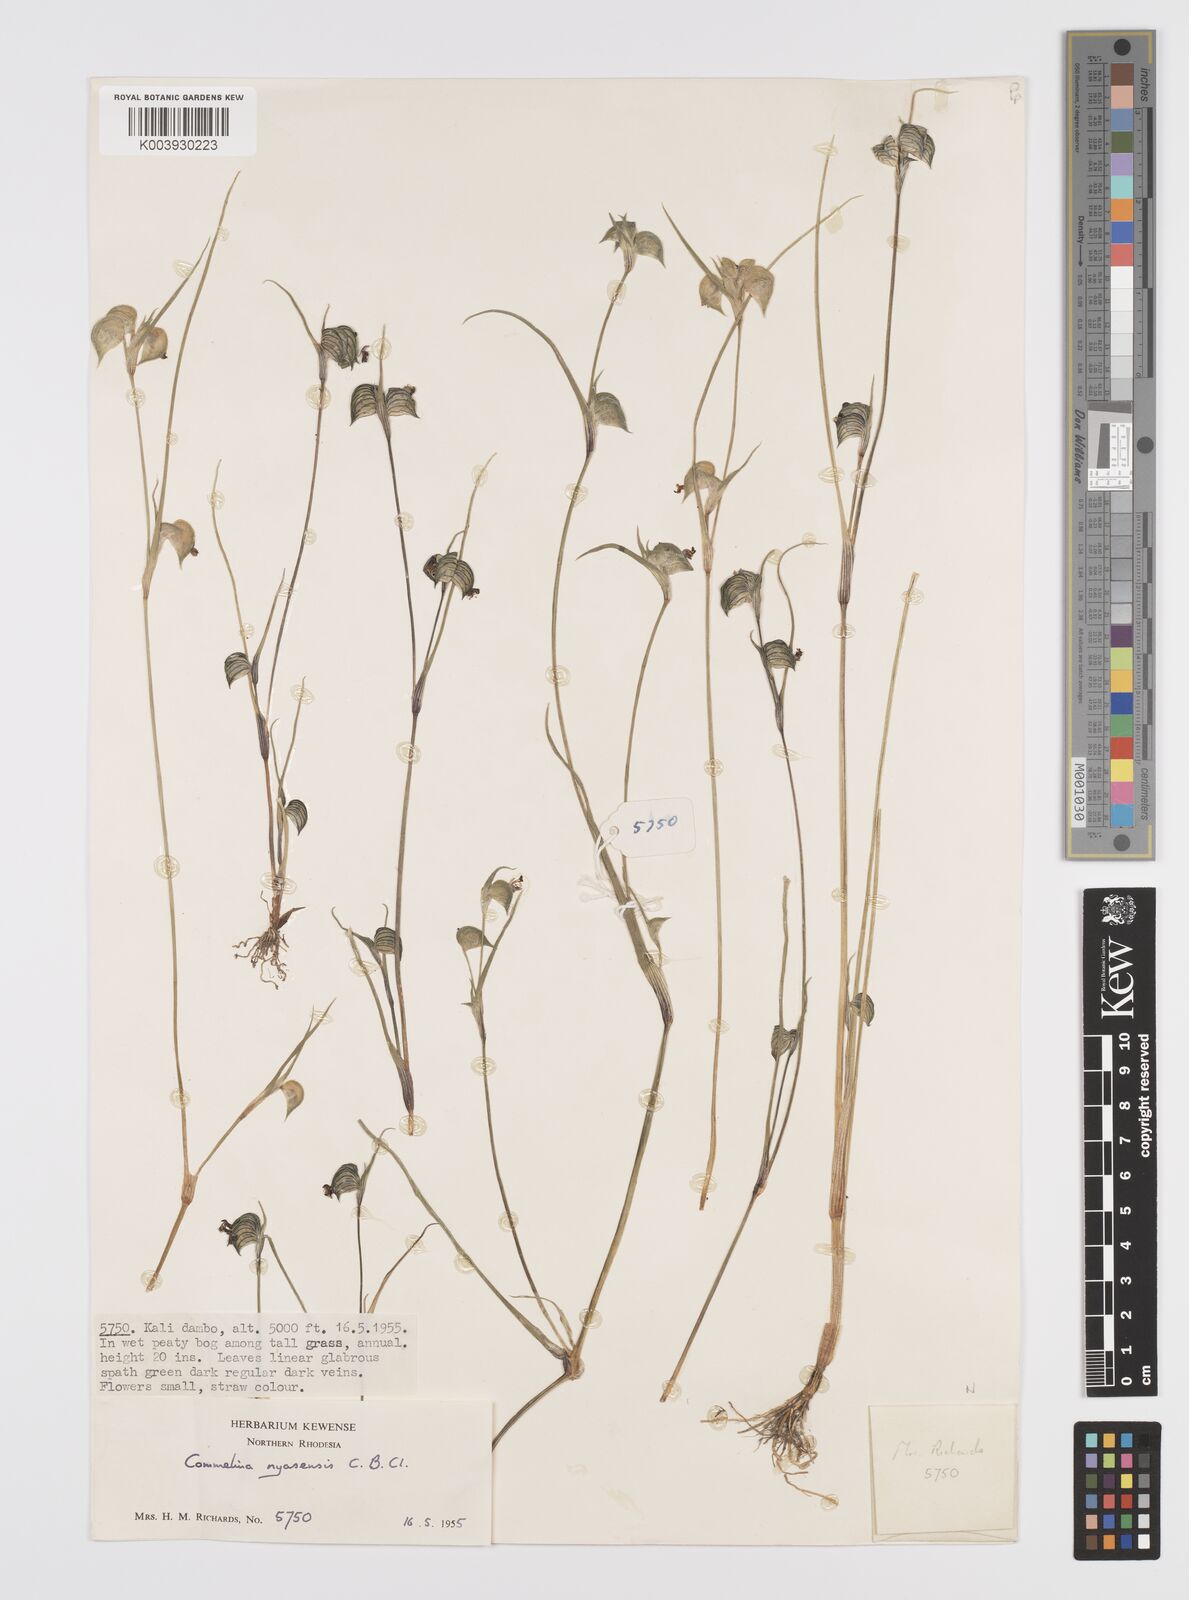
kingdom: Plantae
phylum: Tracheophyta
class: Liliopsida
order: Commelinales
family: Commelinaceae
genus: Commelina
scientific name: Commelina nyasensis
